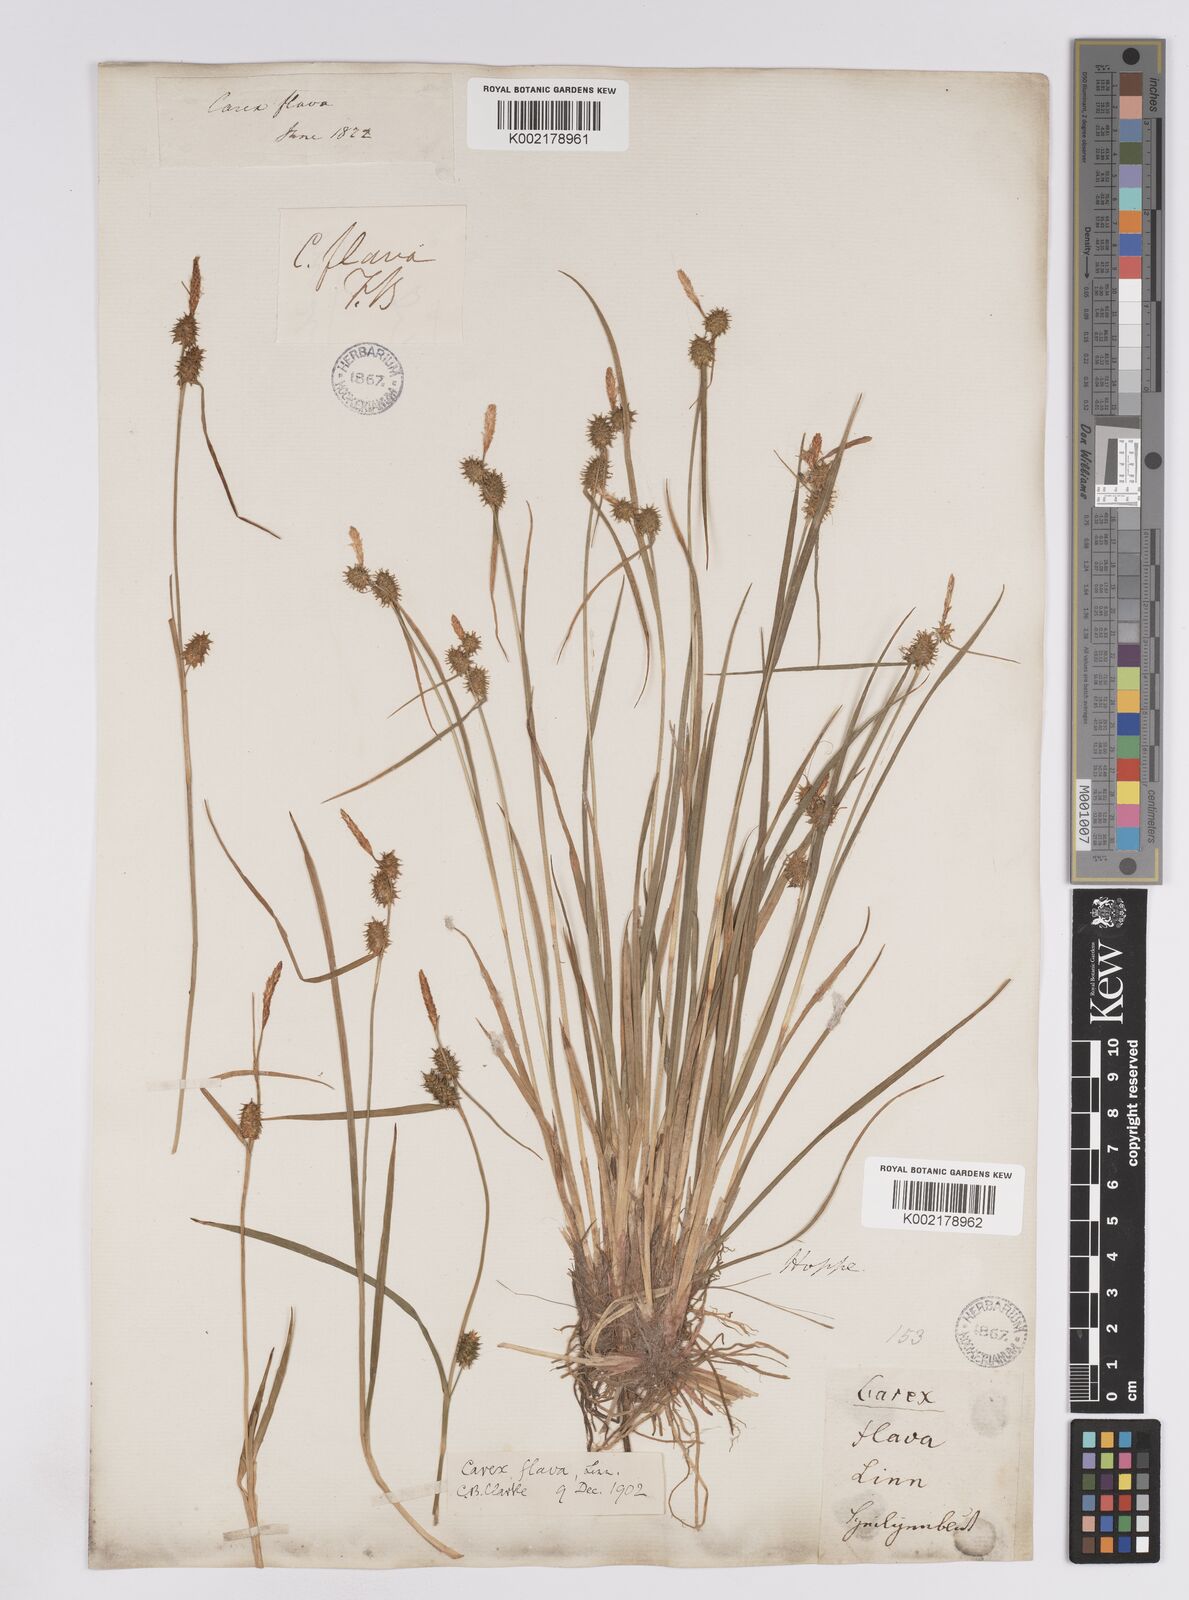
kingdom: Plantae
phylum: Tracheophyta
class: Liliopsida
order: Poales
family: Cyperaceae
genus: Carex
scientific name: Carex lepidocarpa
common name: Long-stalked yellow-sedge
